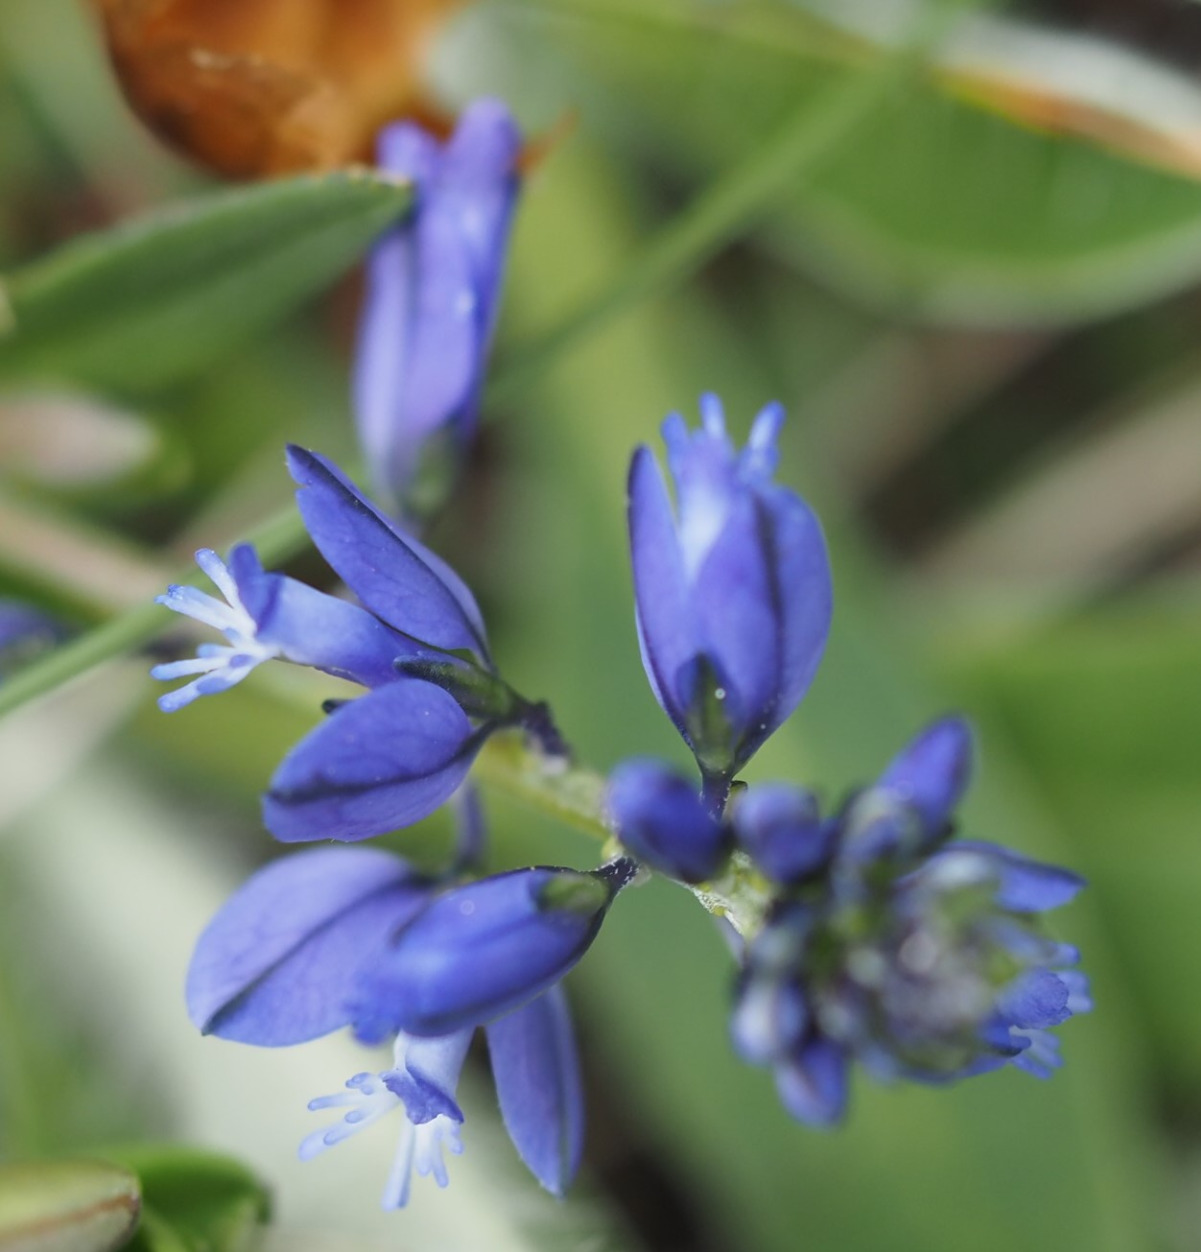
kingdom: Plantae
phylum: Tracheophyta
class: Magnoliopsida
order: Fabales
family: Polygalaceae
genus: Polygala
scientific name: Polygala vulgaris
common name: Almindelig mælkeurt
